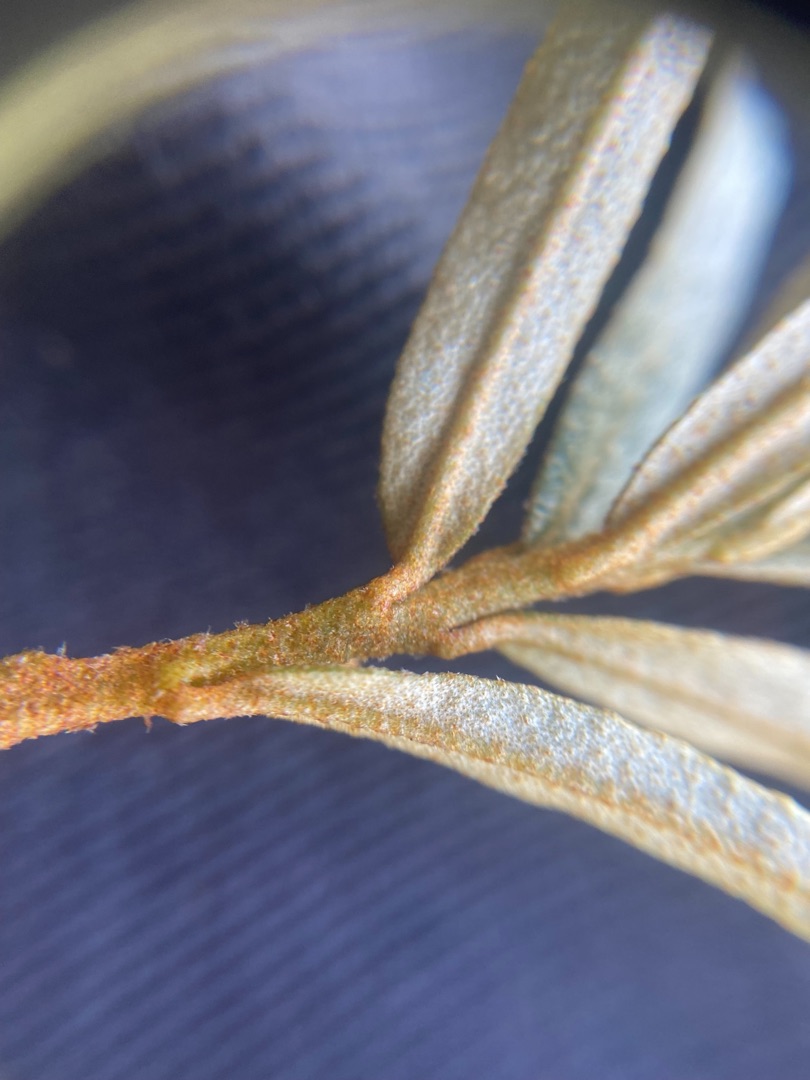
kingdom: Plantae
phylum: Tracheophyta
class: Magnoliopsida
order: Rosales
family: Elaeagnaceae
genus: Hippophae
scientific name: Hippophae rhamnoides
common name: Havtorn
